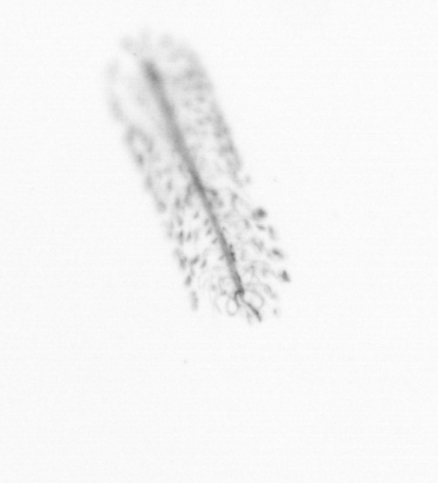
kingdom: Chromista
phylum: Ochrophyta
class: Bacillariophyceae
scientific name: Bacillariophyceae
